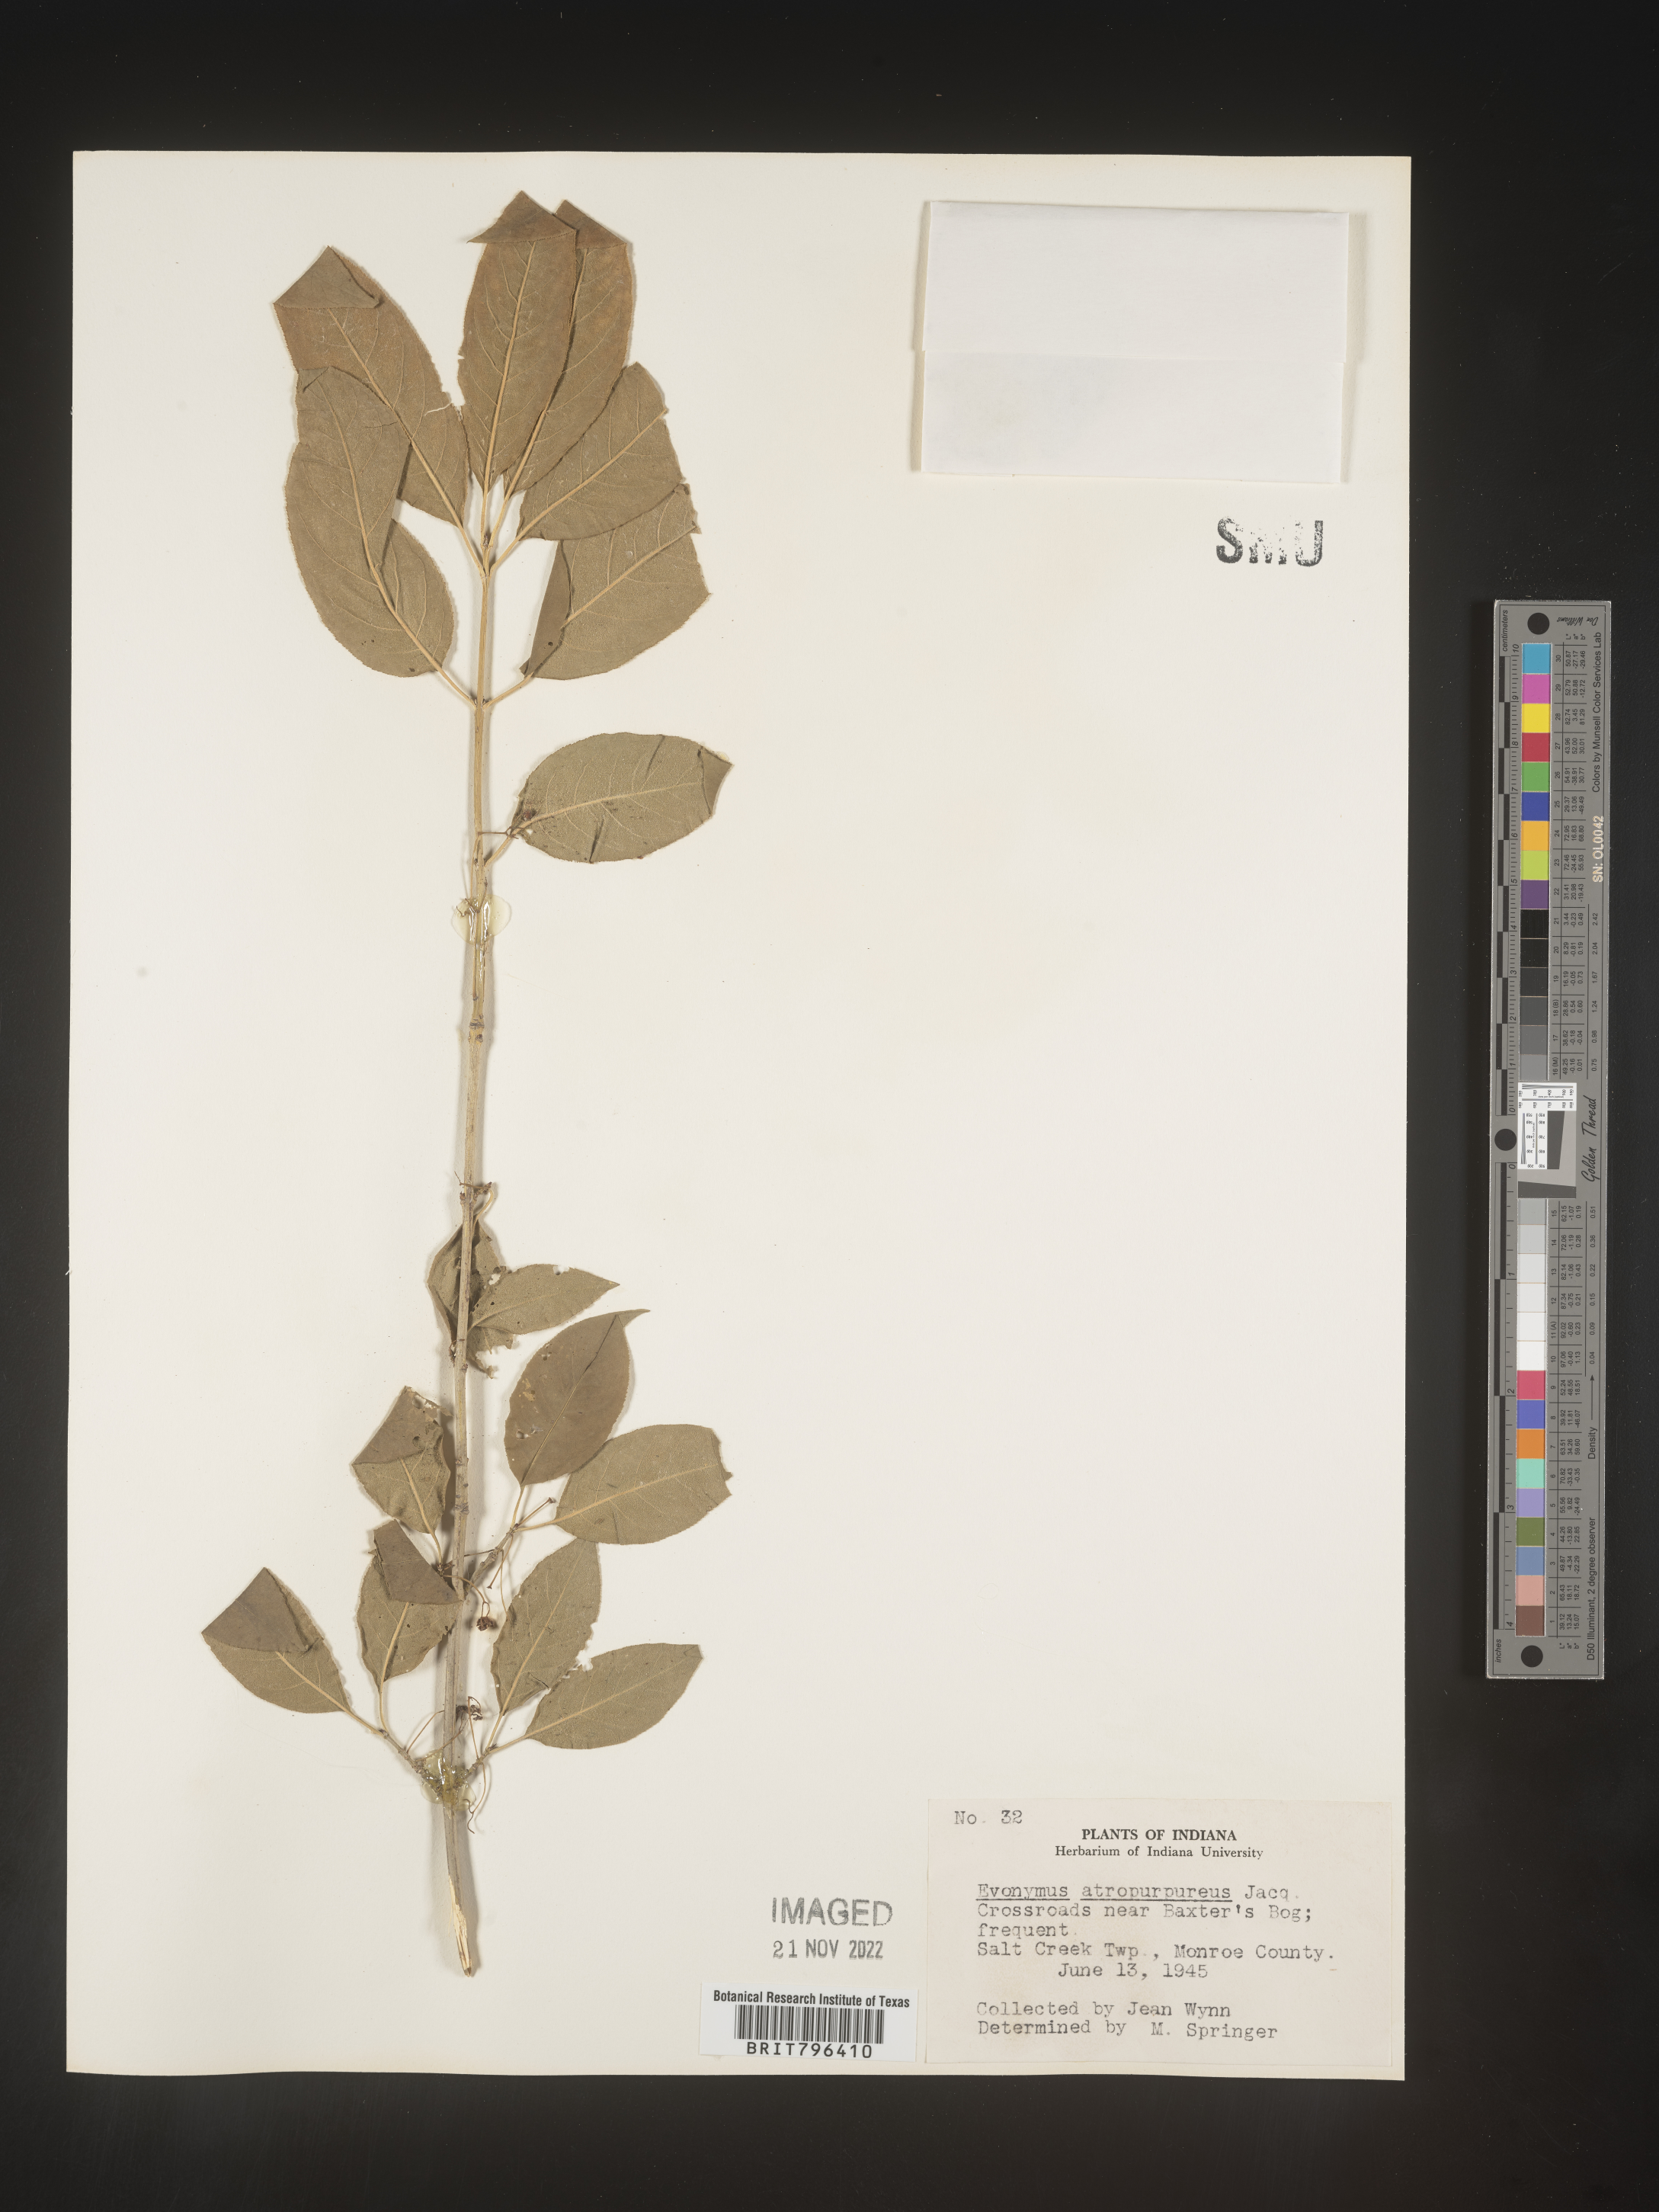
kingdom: Plantae
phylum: Tracheophyta
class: Magnoliopsida
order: Celastrales
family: Celastraceae
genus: Euonymus
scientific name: Euonymus atropurpureus
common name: Eastern wahoo
